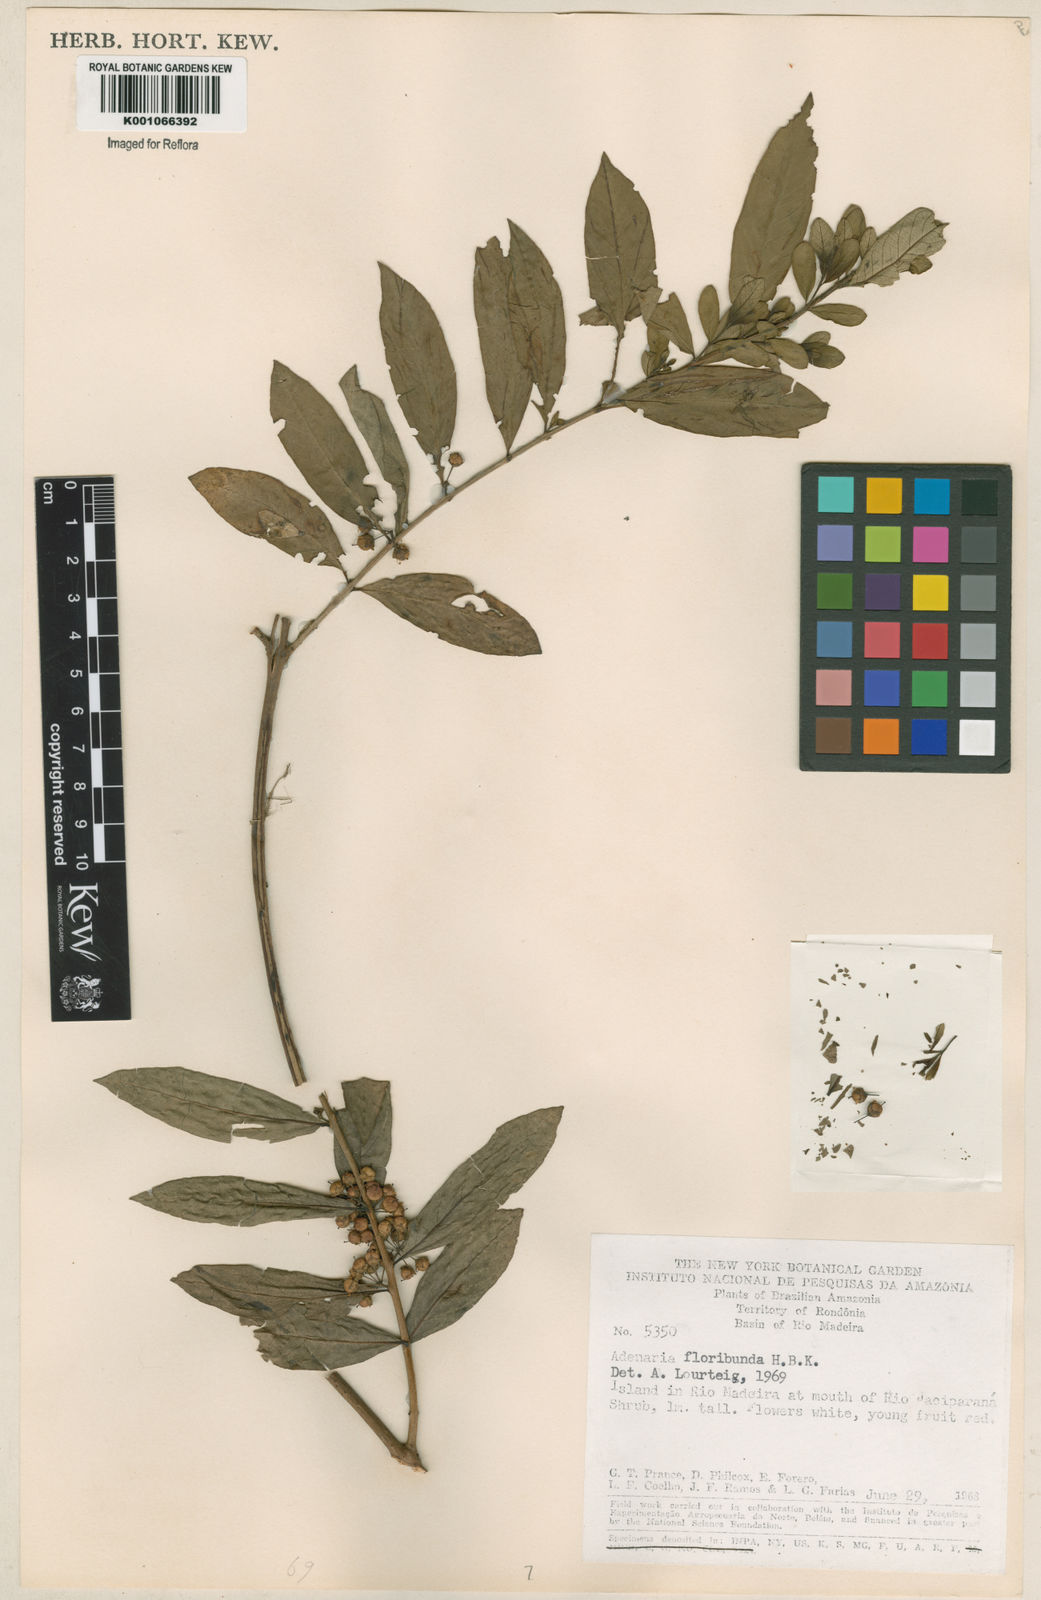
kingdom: Plantae
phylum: Tracheophyta
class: Magnoliopsida
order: Myrtales
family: Lythraceae
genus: Adenaria
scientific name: Adenaria floribunda
